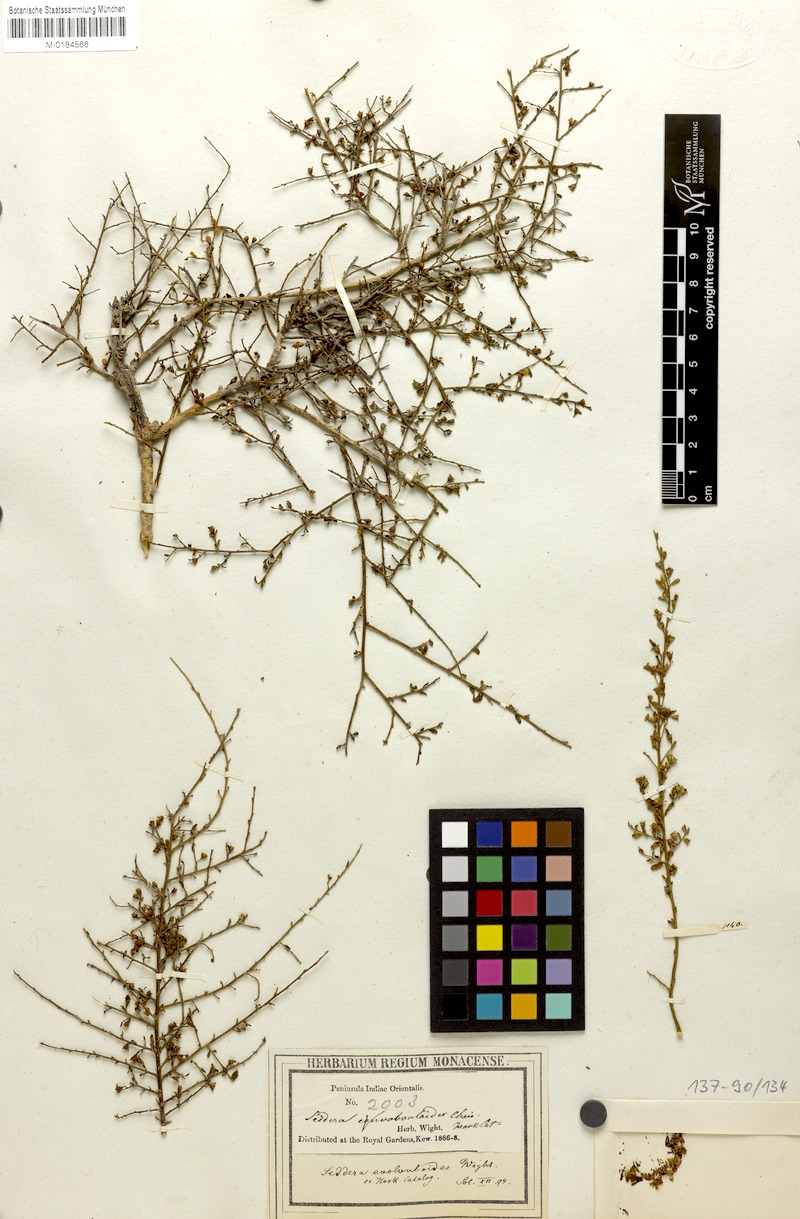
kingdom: Plantae
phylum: Tracheophyta
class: Magnoliopsida
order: Solanales
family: Convolvulaceae
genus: Seddera
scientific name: Seddera evolvuloides
